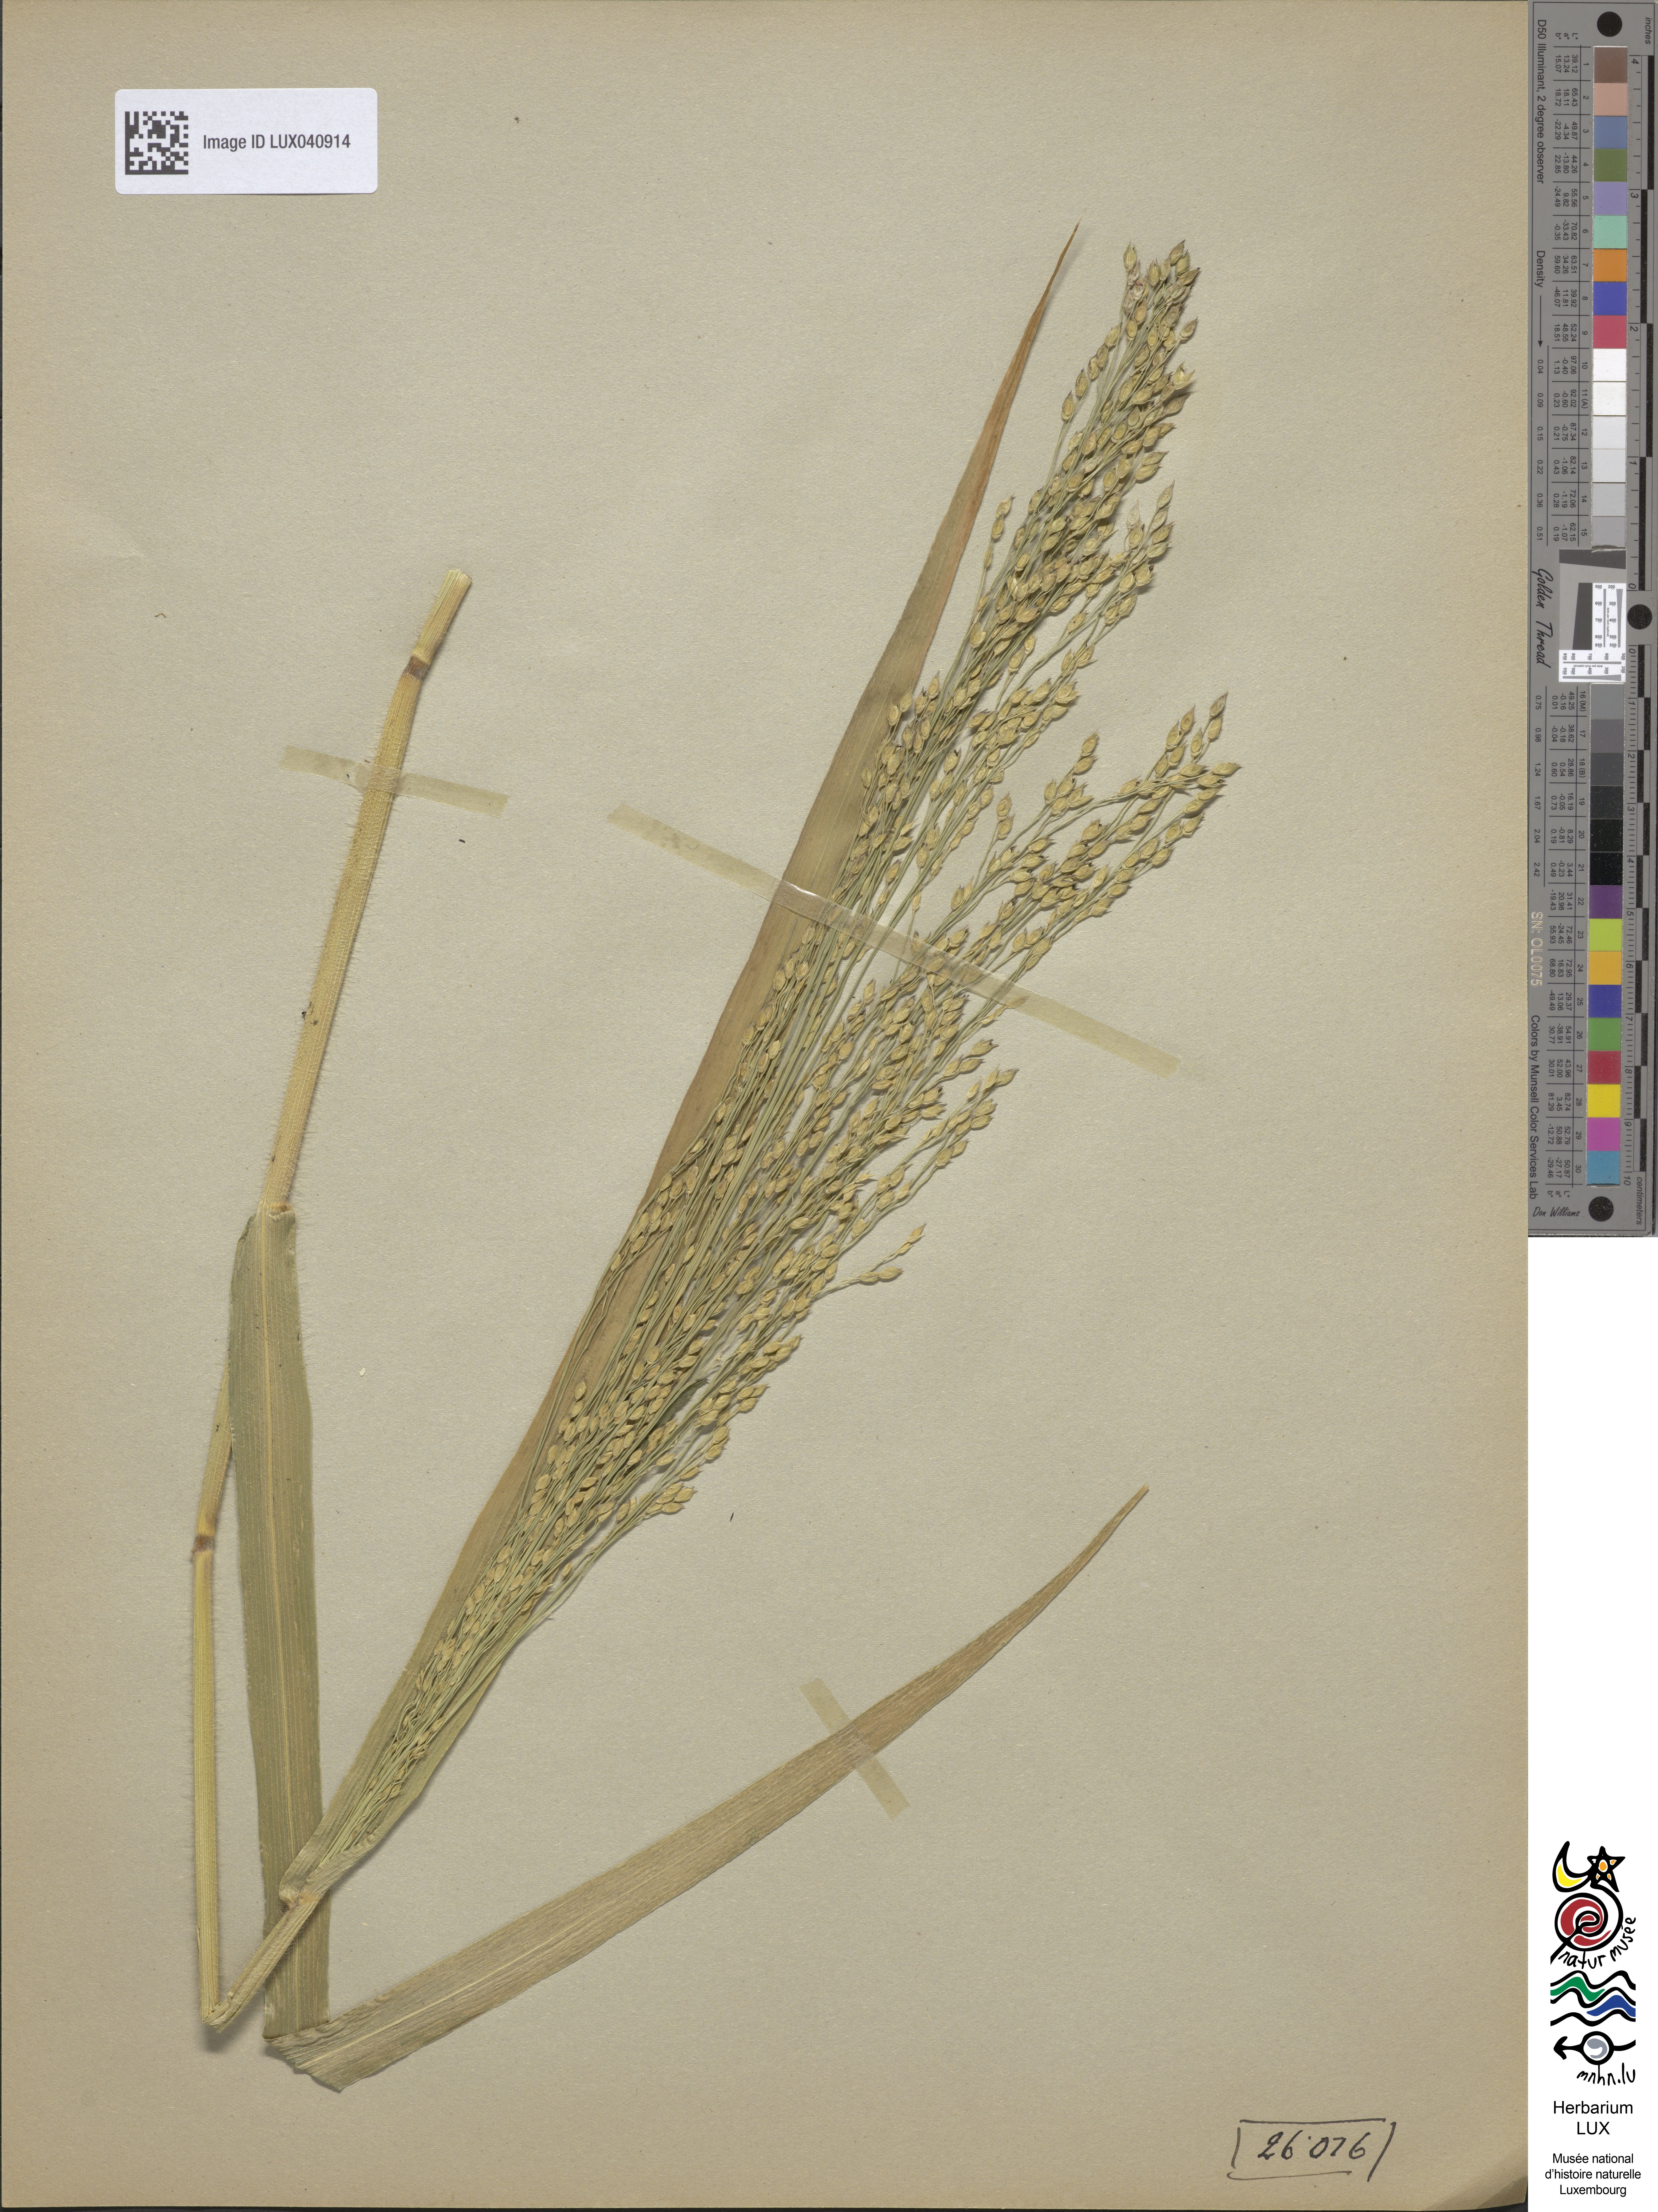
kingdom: Plantae
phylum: Tracheophyta
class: Liliopsida
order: Poales
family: Poaceae
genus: Panicum
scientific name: Panicum miliaceum
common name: Common millet
